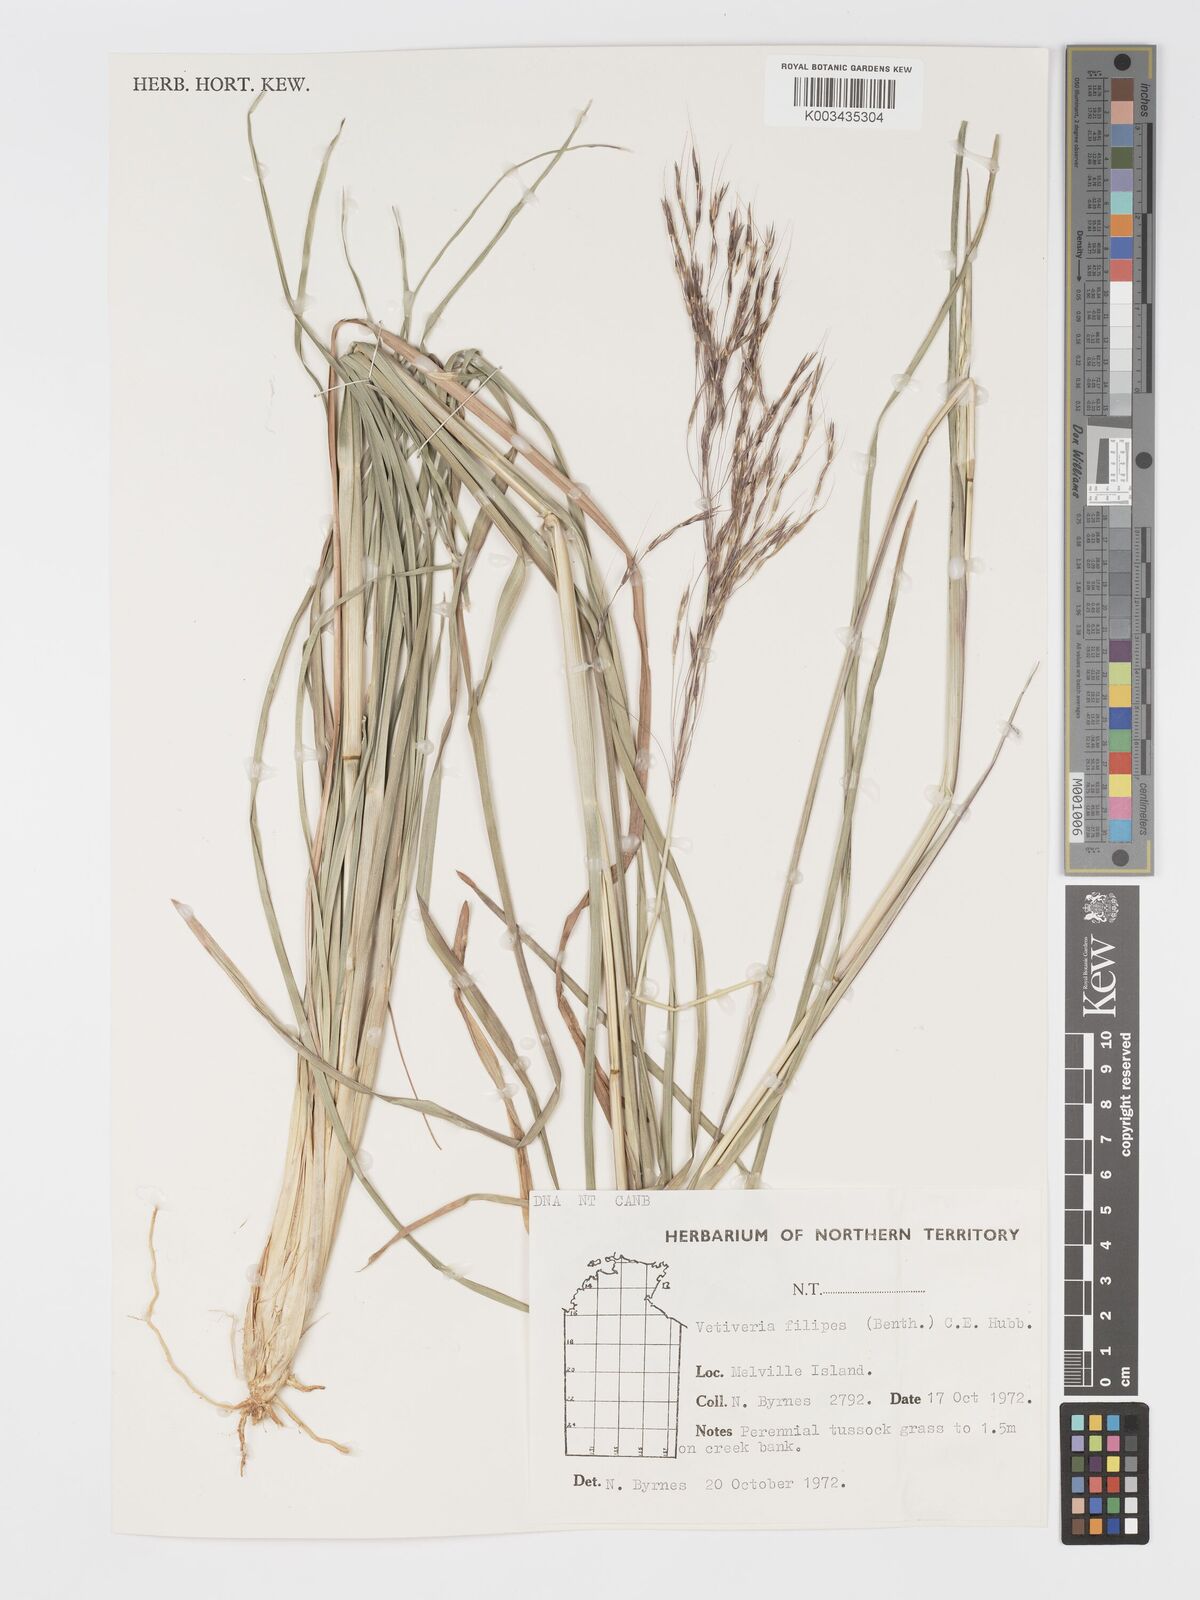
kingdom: Plantae
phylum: Tracheophyta
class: Liliopsida
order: Poales
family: Poaceae
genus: Chrysopogon
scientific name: Chrysopogon filipes
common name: Australian vetiver
